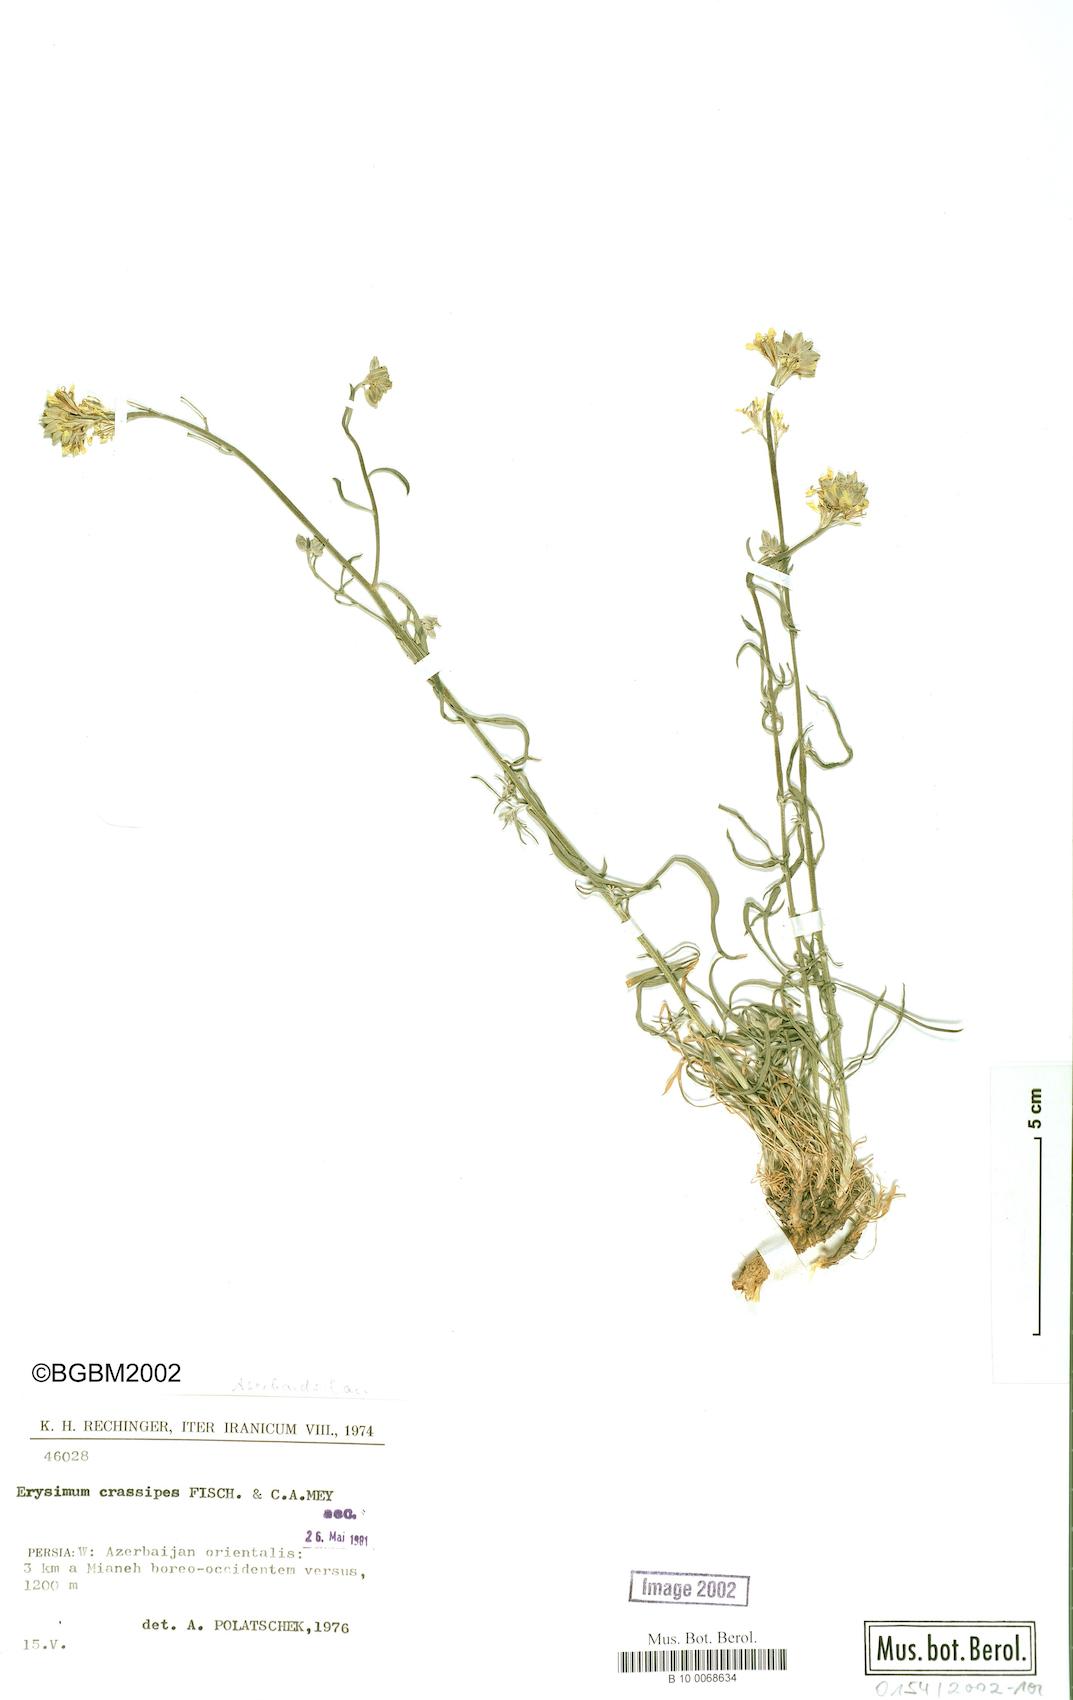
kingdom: Plantae
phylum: Tracheophyta
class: Magnoliopsida
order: Brassicales
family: Brassicaceae
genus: Erysimum
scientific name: Erysimum crassipes
